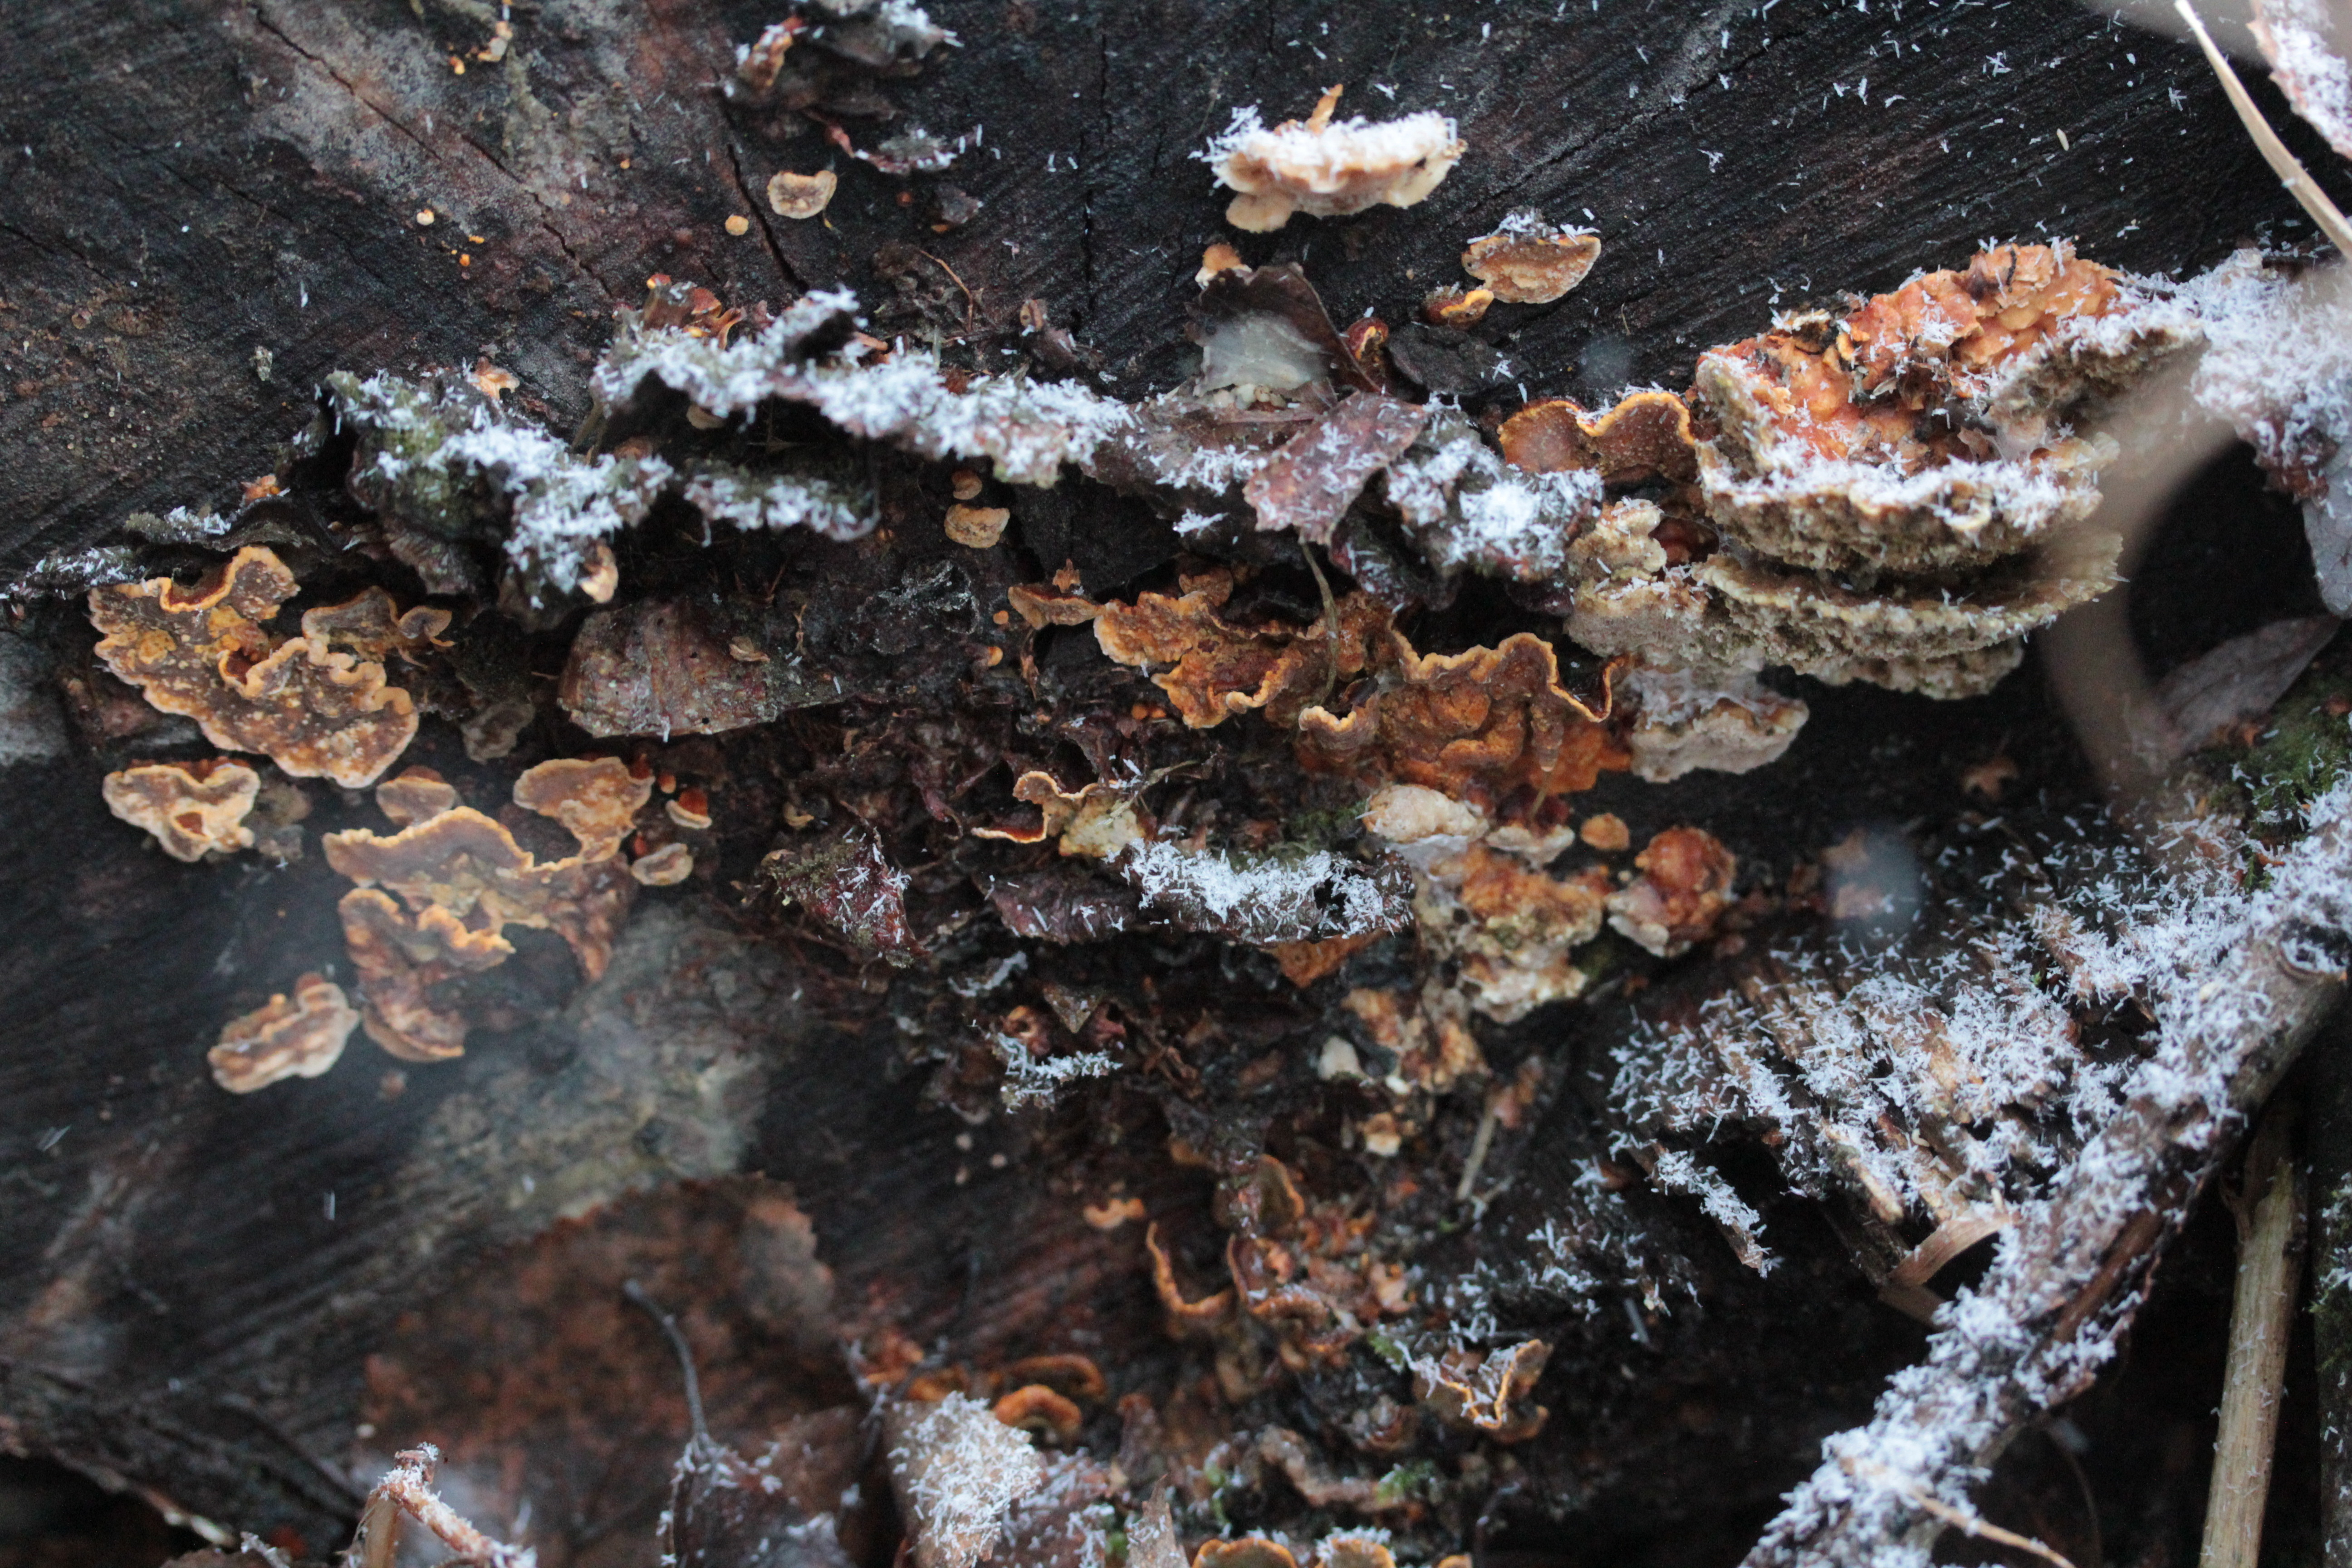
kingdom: Fungi
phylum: Basidiomycota
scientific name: Basidiomycota
